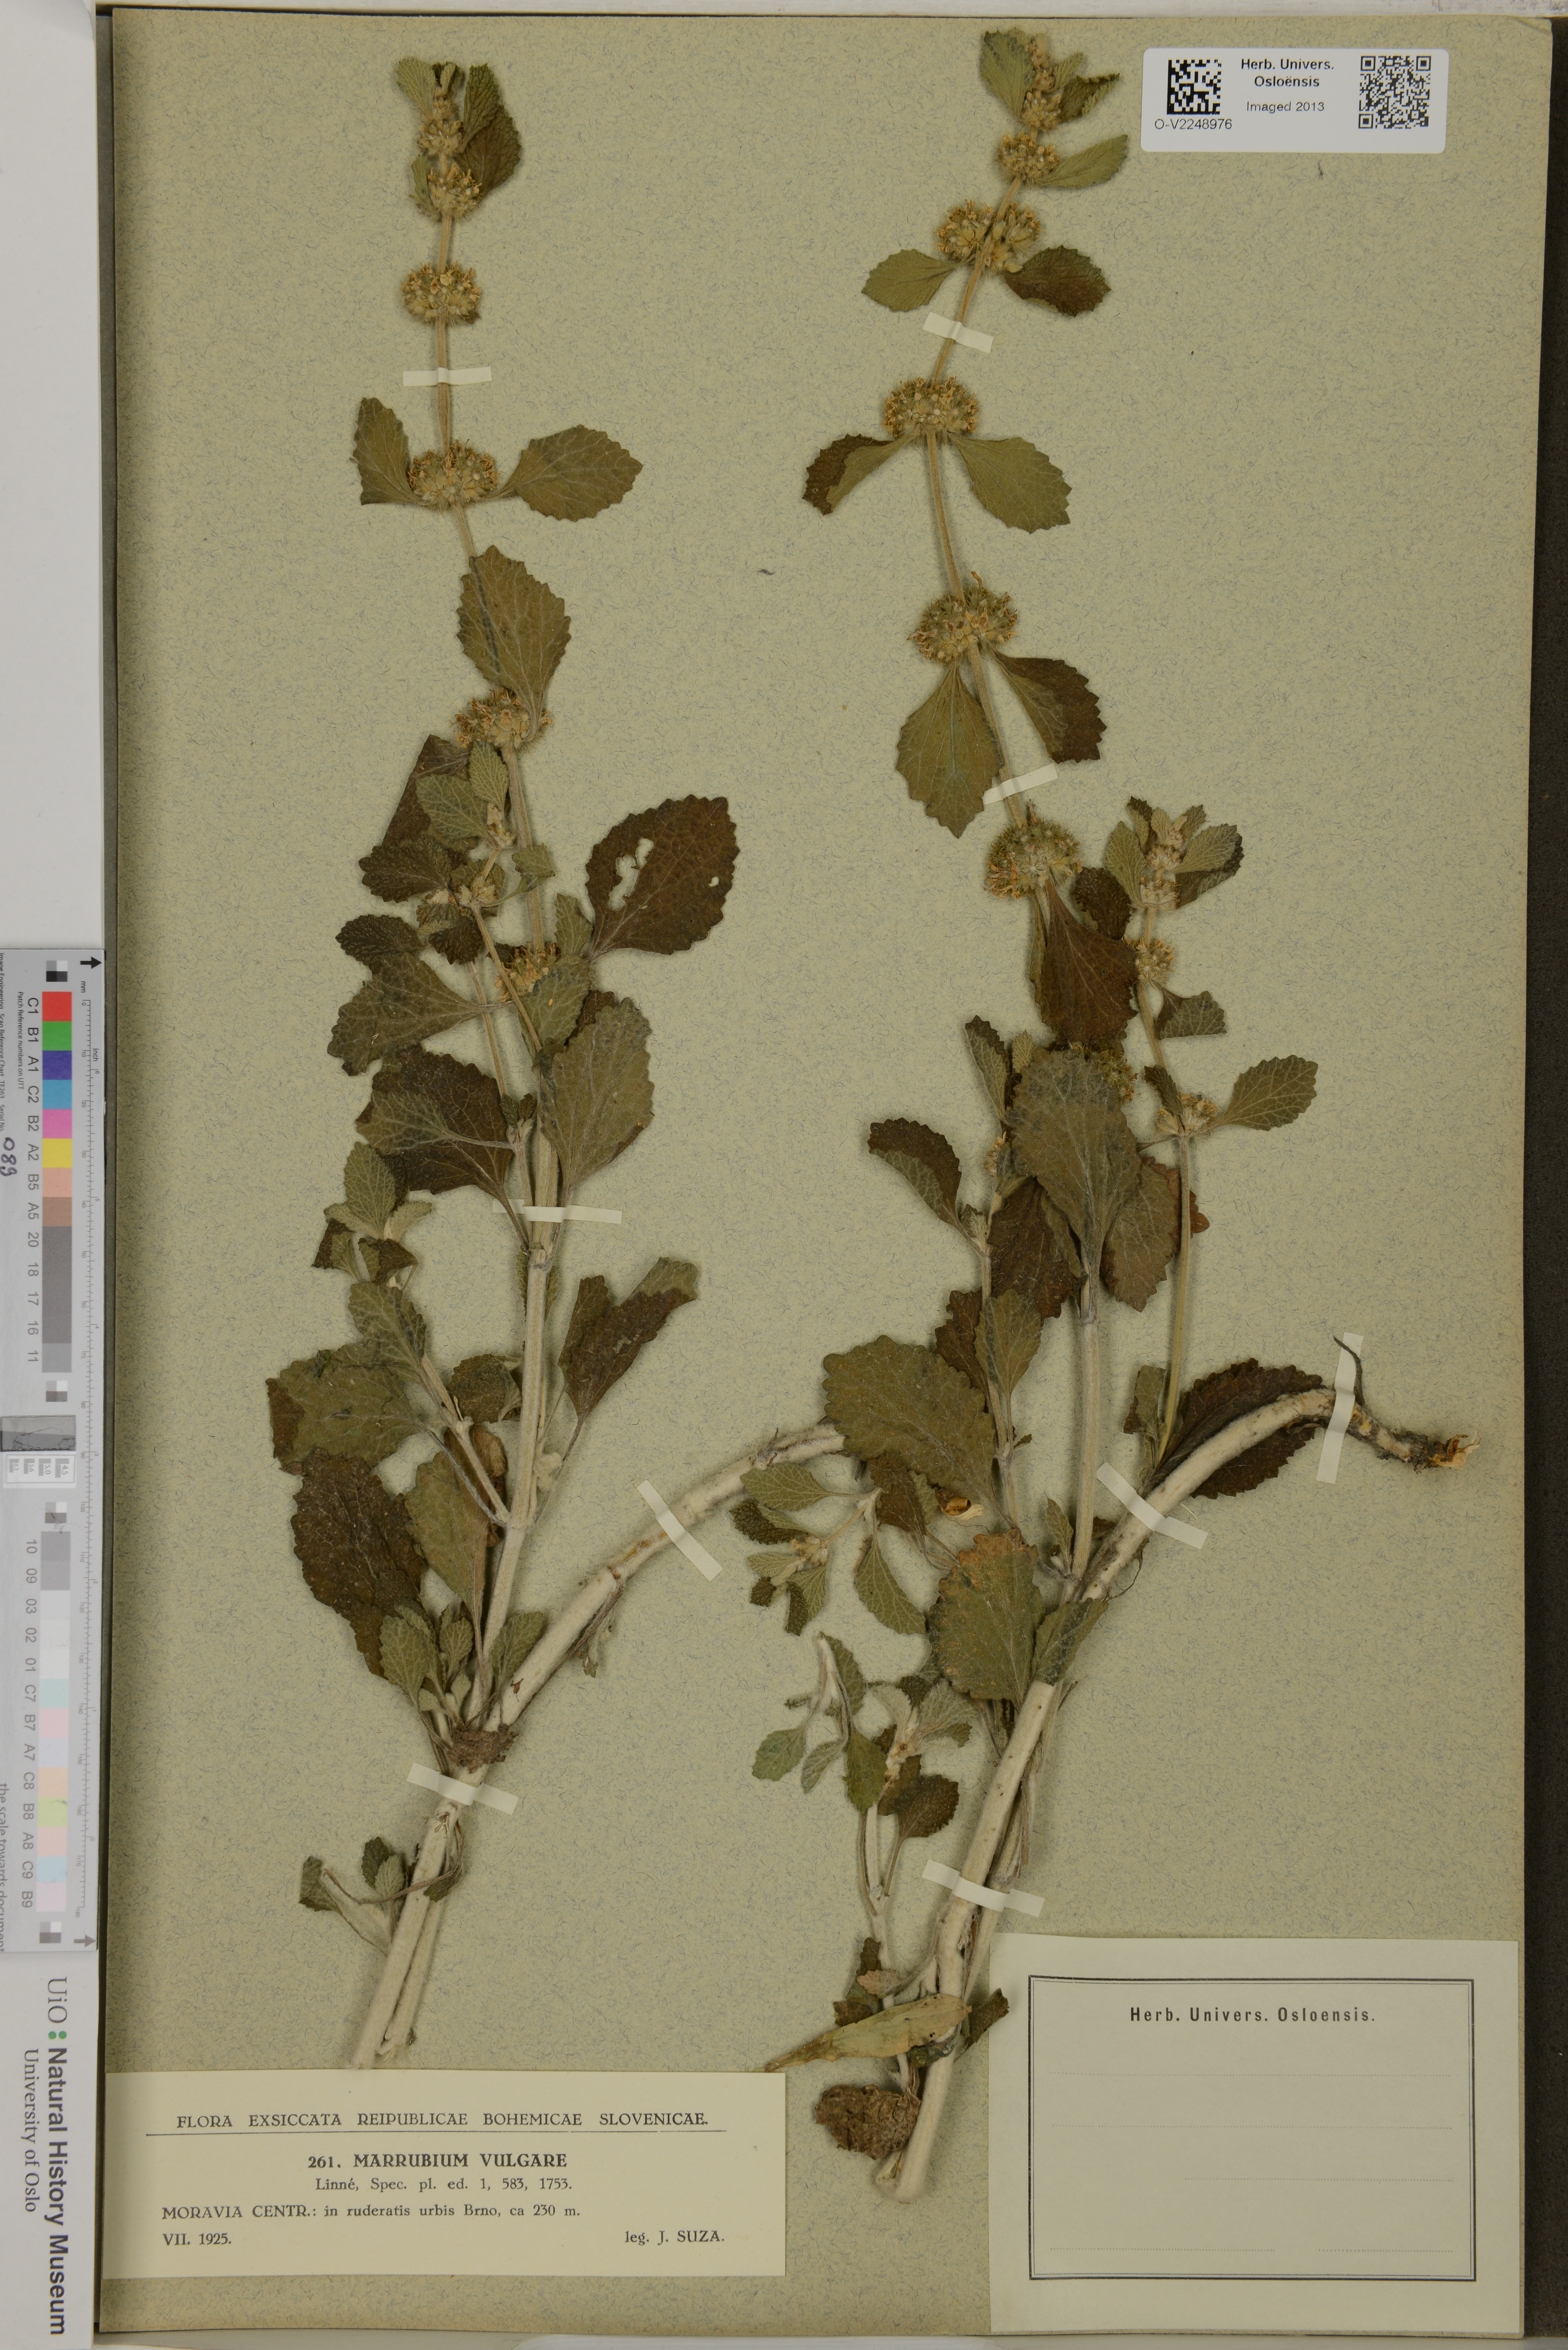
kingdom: Plantae
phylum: Tracheophyta
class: Magnoliopsida
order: Lamiales
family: Lamiaceae
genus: Marrubium
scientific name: Marrubium vulgare
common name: Horehound
